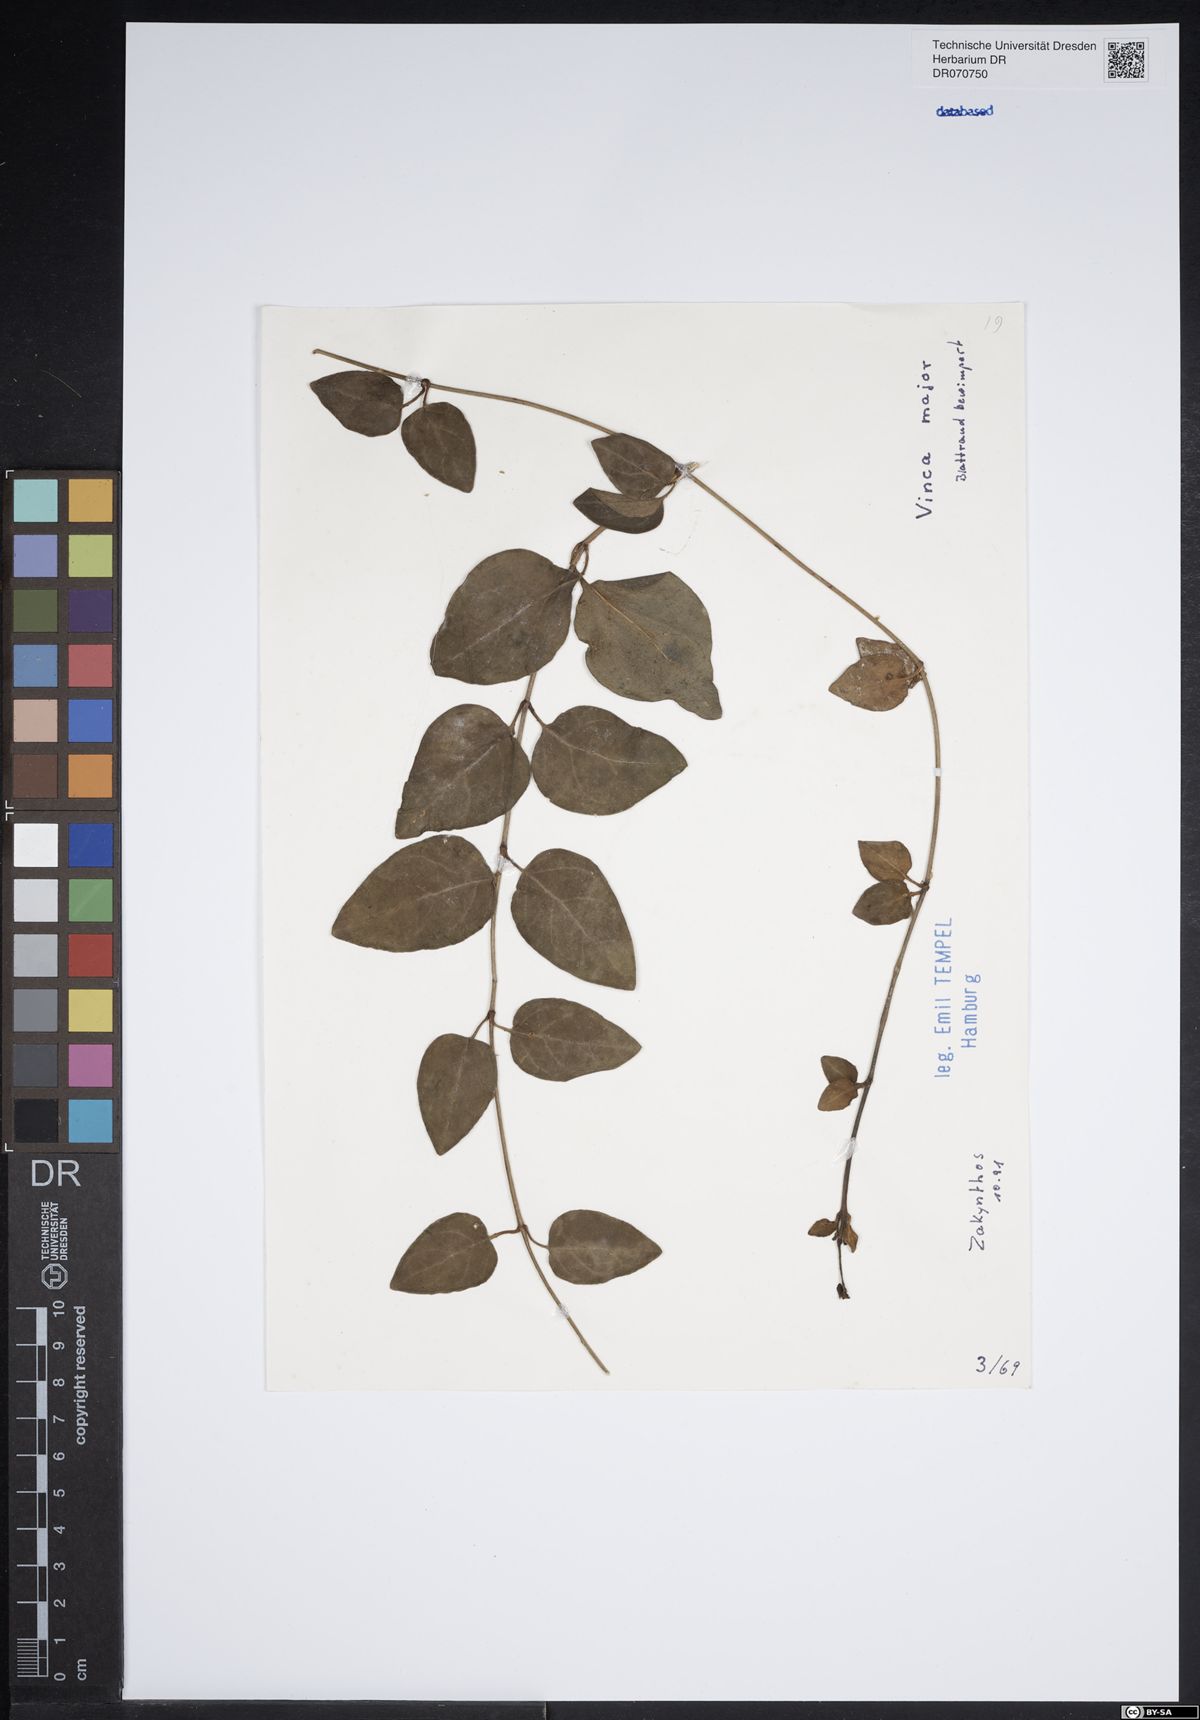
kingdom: Plantae
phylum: Tracheophyta
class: Magnoliopsida
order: Gentianales
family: Apocynaceae
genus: Vinca
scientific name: Vinca major
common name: Greater periwinkle
